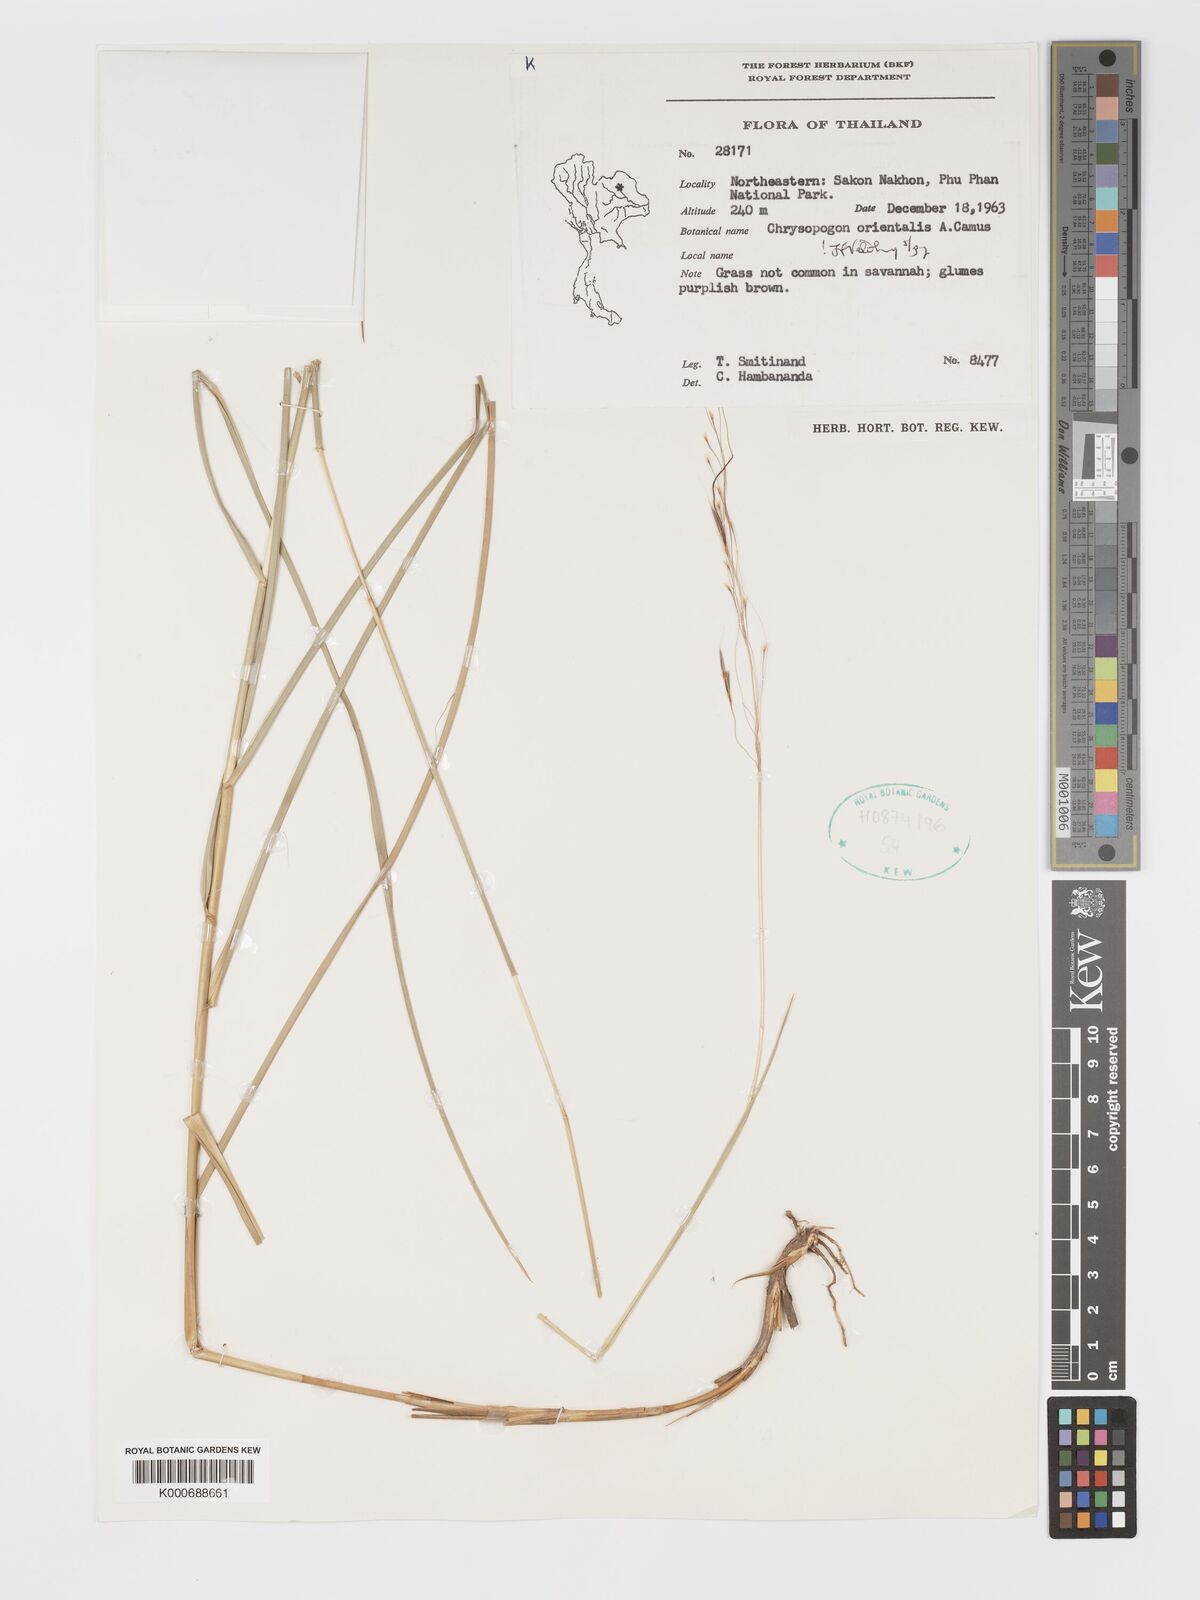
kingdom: Plantae
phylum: Tracheophyta
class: Liliopsida
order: Poales
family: Poaceae
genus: Chrysopogon
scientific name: Chrysopogon orientalis
